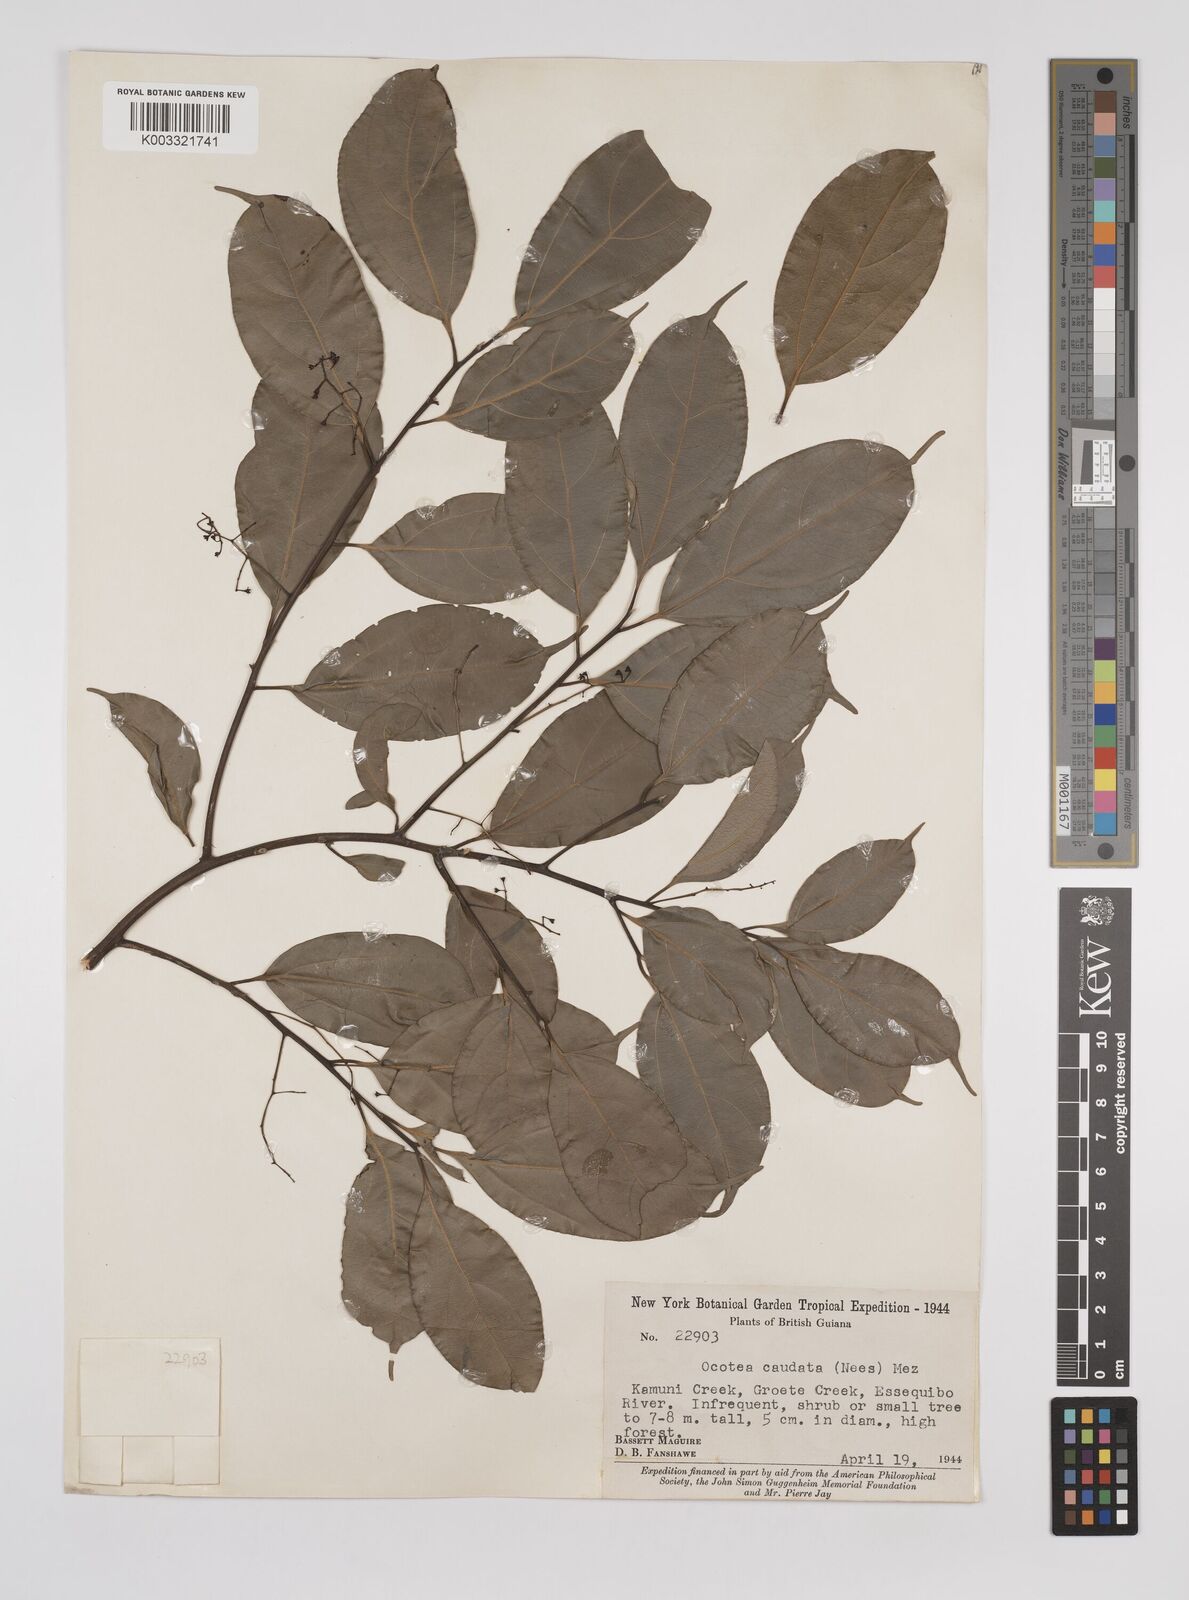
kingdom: Plantae
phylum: Tracheophyta
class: Magnoliopsida
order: Laurales
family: Lauraceae
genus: Ocotea
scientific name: Ocotea leptobotra
